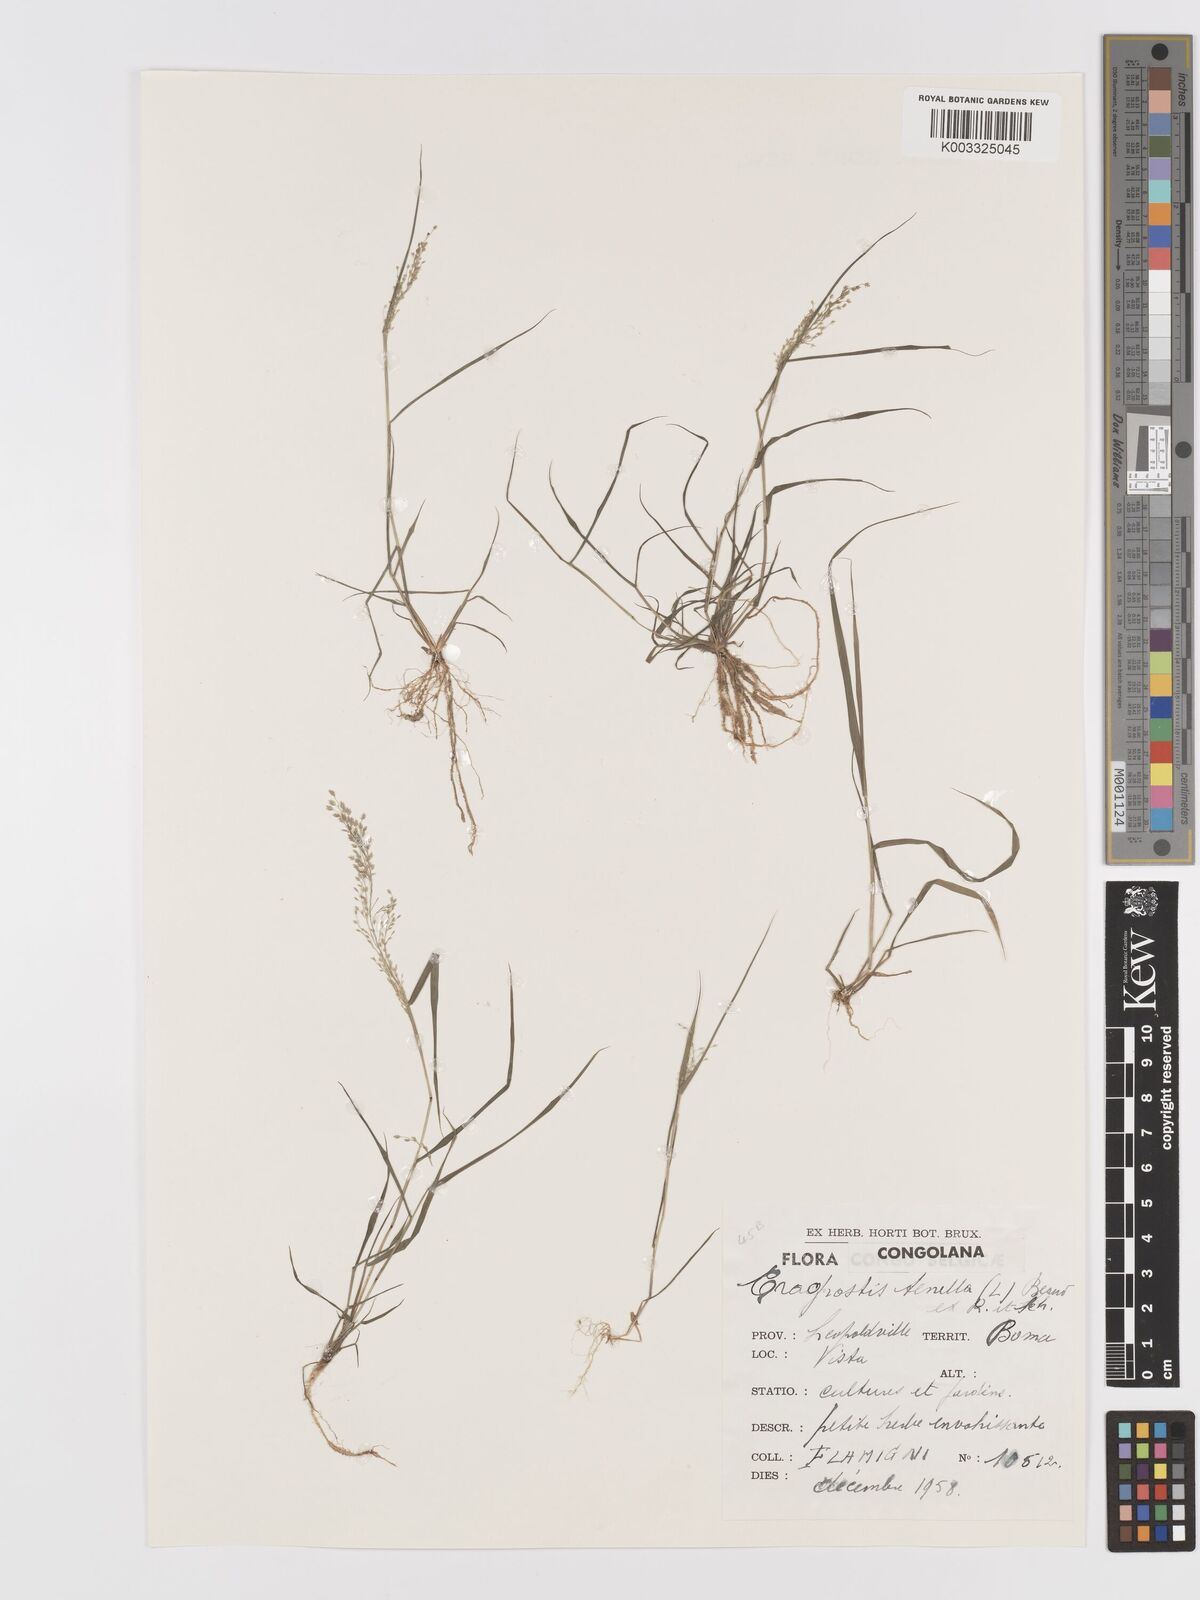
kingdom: Plantae
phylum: Tracheophyta
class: Liliopsida
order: Poales
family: Poaceae
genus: Eragrostis
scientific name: Eragrostis tenella
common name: Japanese lovegrass
